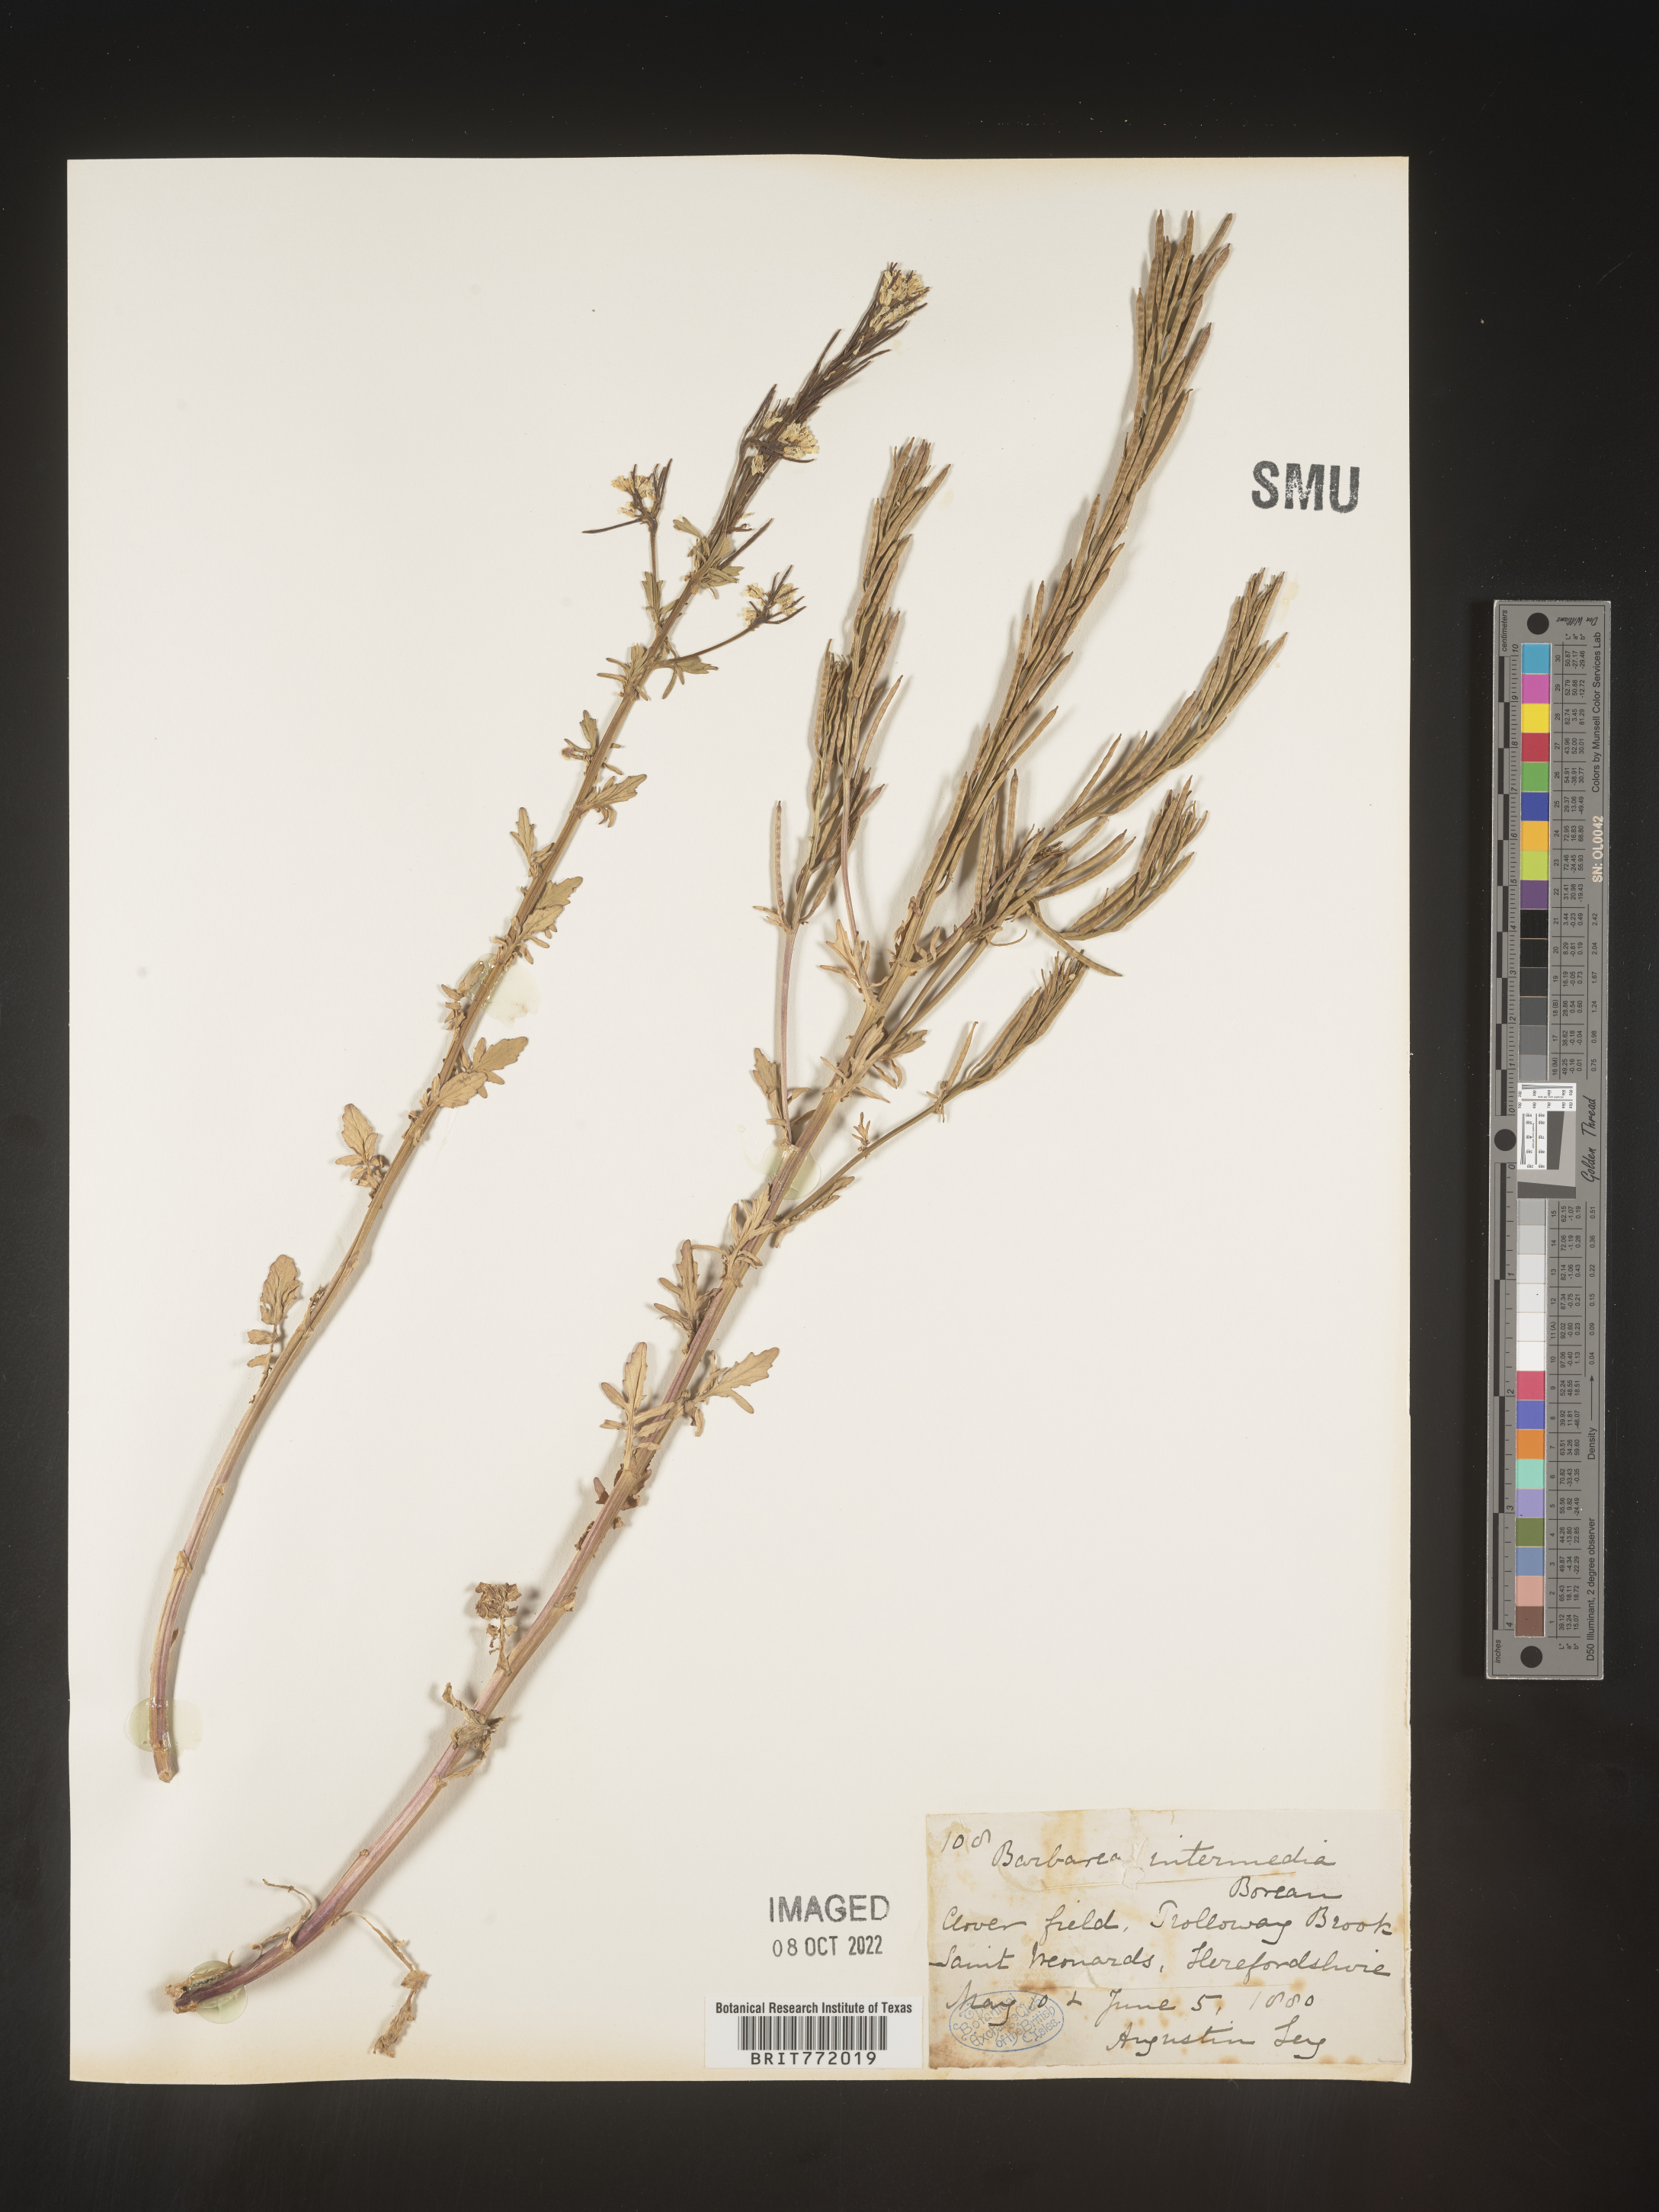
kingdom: Plantae
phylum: Tracheophyta
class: Magnoliopsida
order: Brassicales
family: Brassicaceae
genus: Barbarea
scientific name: Barbarea
